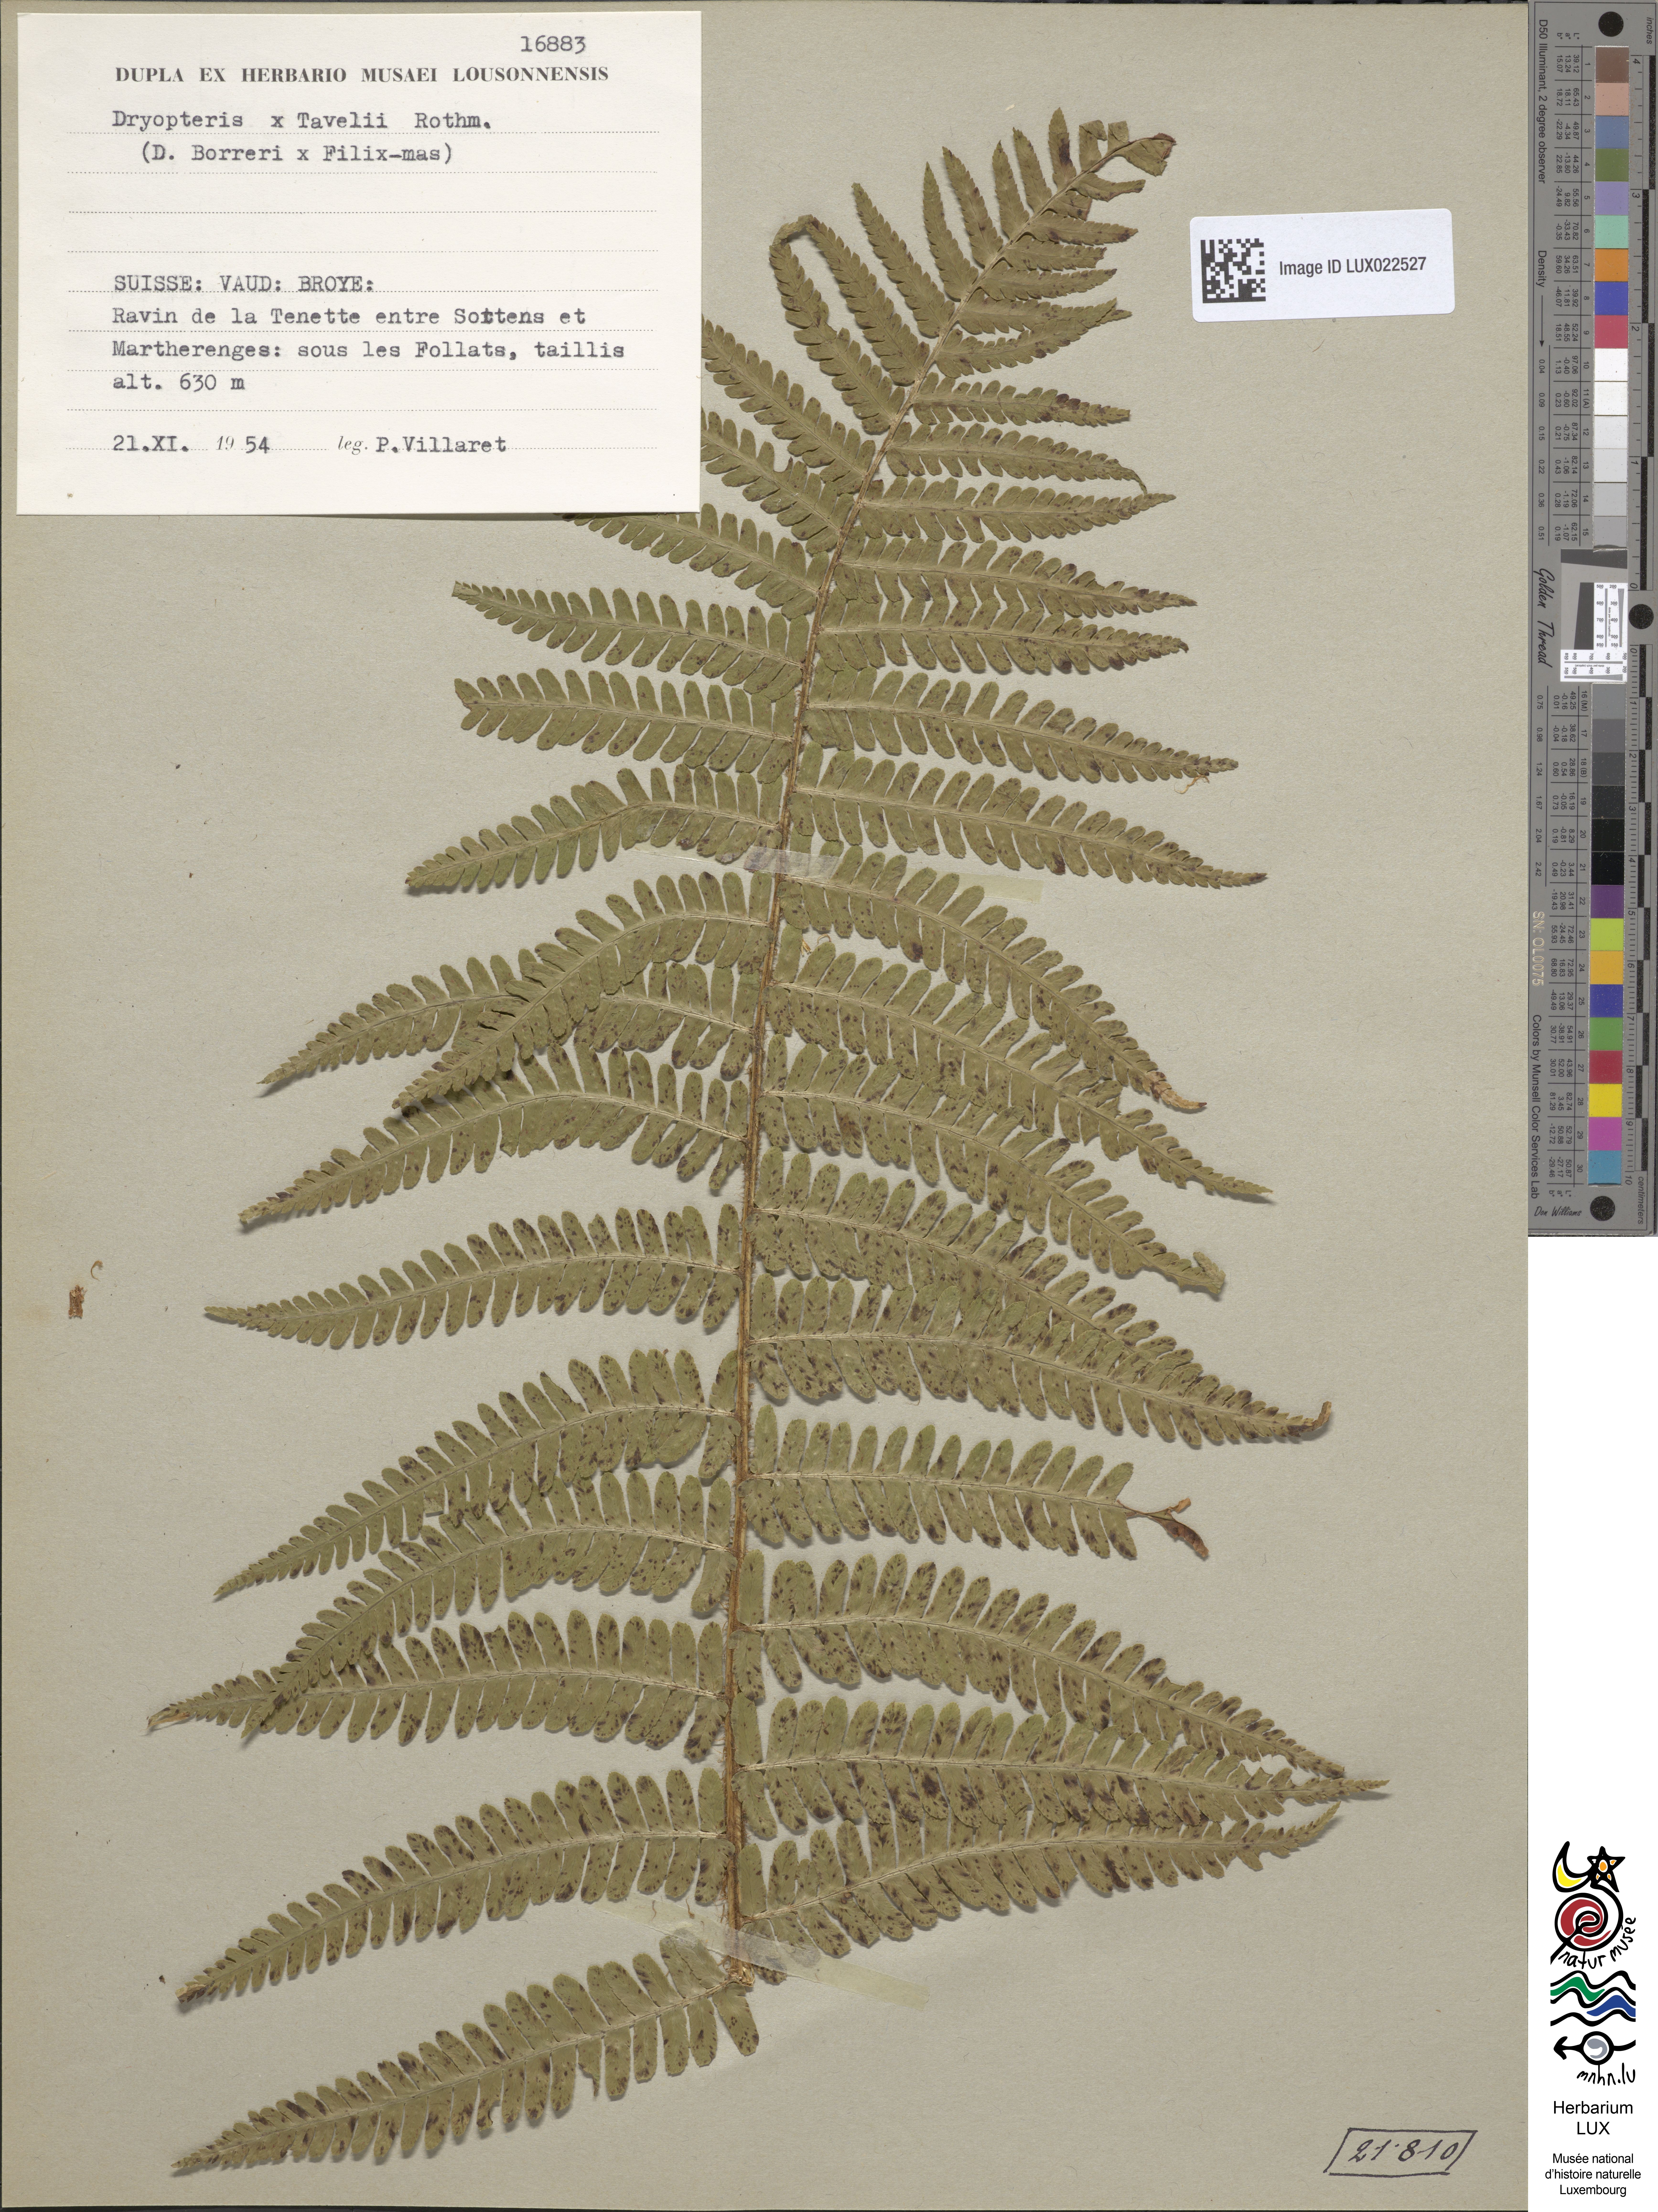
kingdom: Plantae
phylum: Tracheophyta
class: Polypodiopsida
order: Polypodiales
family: Dryopteridaceae
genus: Dryopteris
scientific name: Dryopteris borreri
